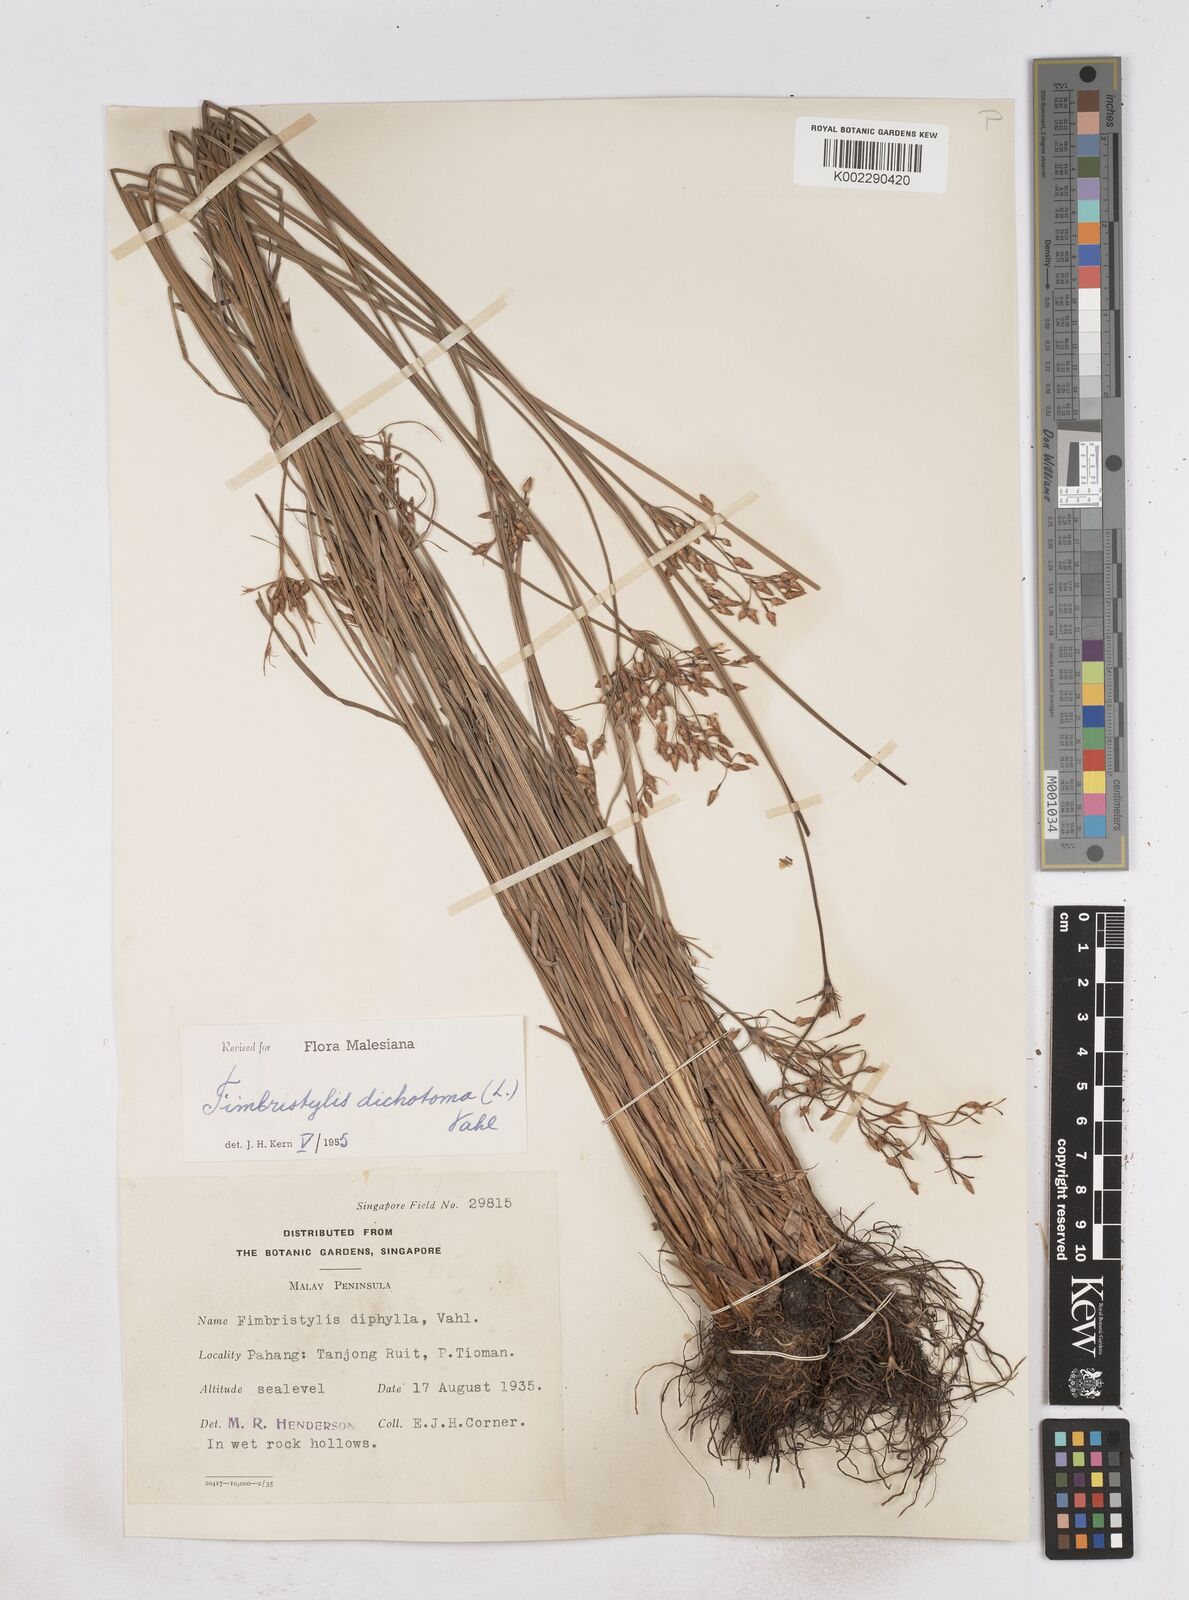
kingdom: Plantae
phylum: Tracheophyta
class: Liliopsida
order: Poales
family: Cyperaceae
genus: Fimbristylis
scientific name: Fimbristylis dichotoma
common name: Forked fimbry
